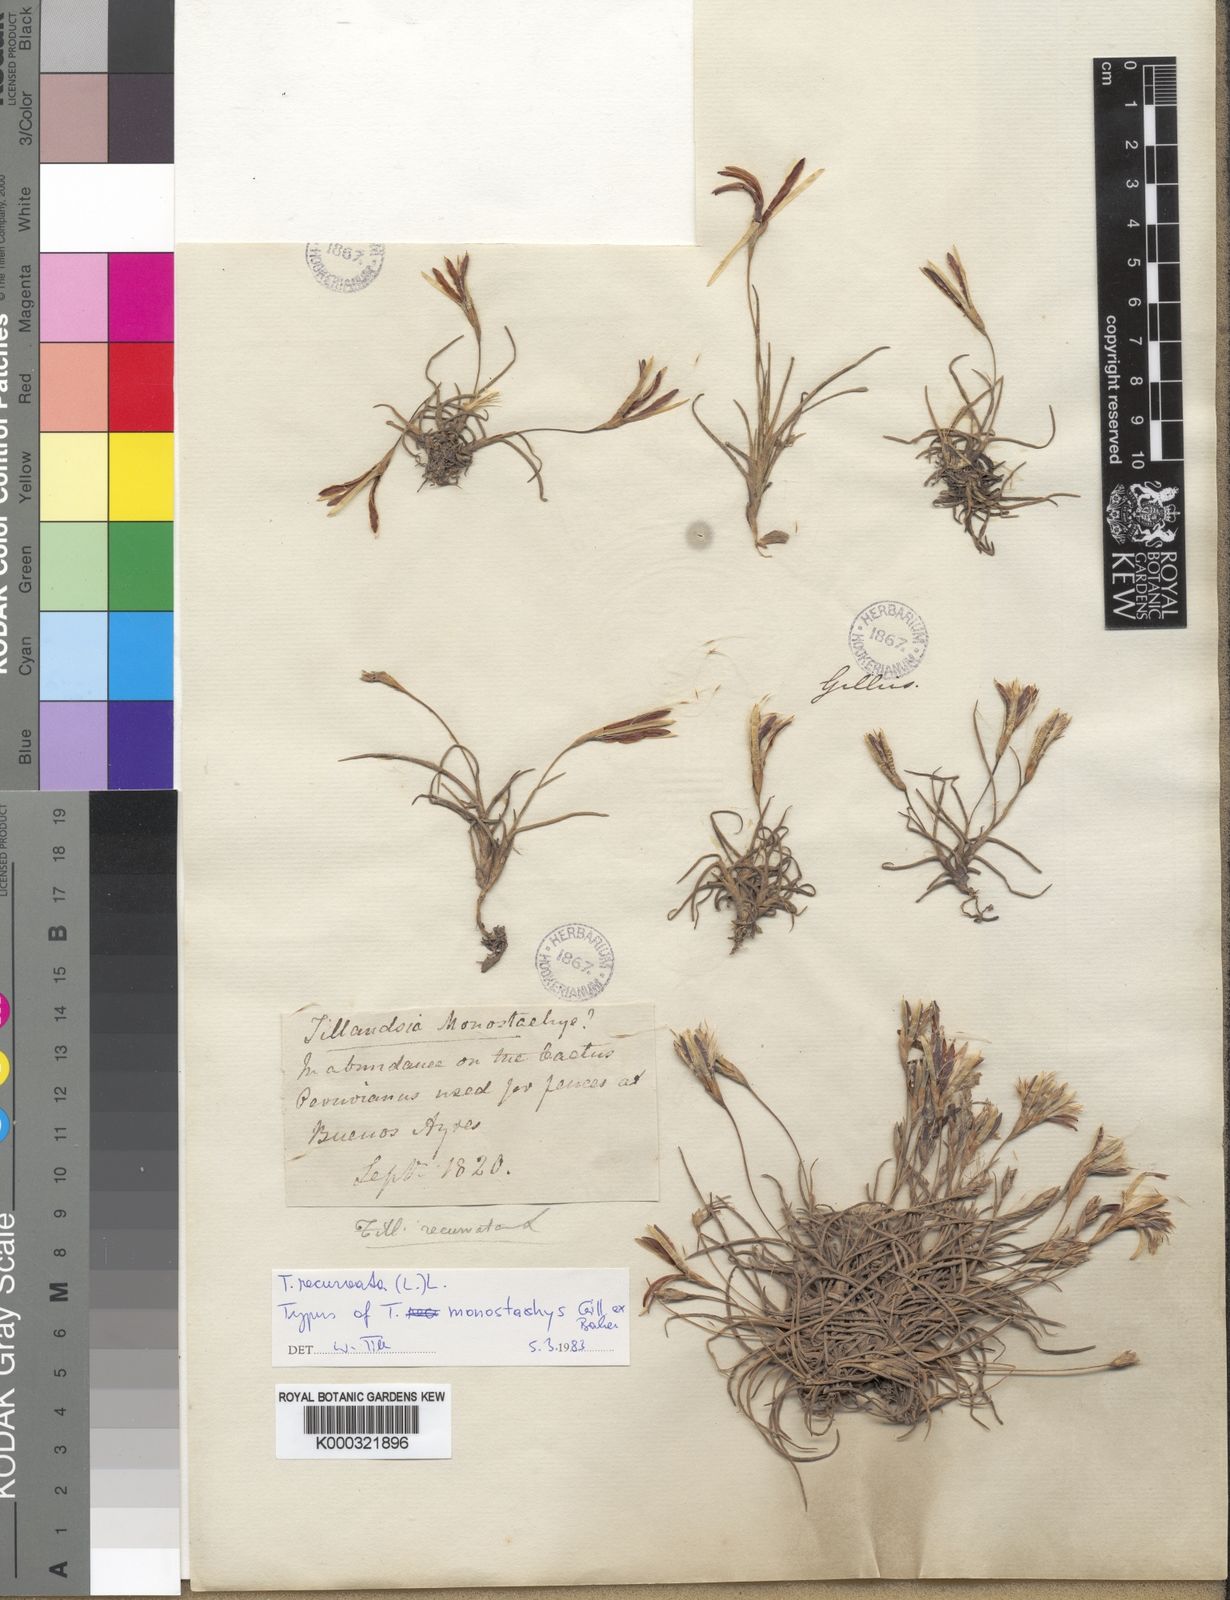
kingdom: Plantae
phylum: Tracheophyta
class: Liliopsida
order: Poales
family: Bromeliaceae
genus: Tillandsia
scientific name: Tillandsia recurvata
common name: Small ballmoss
